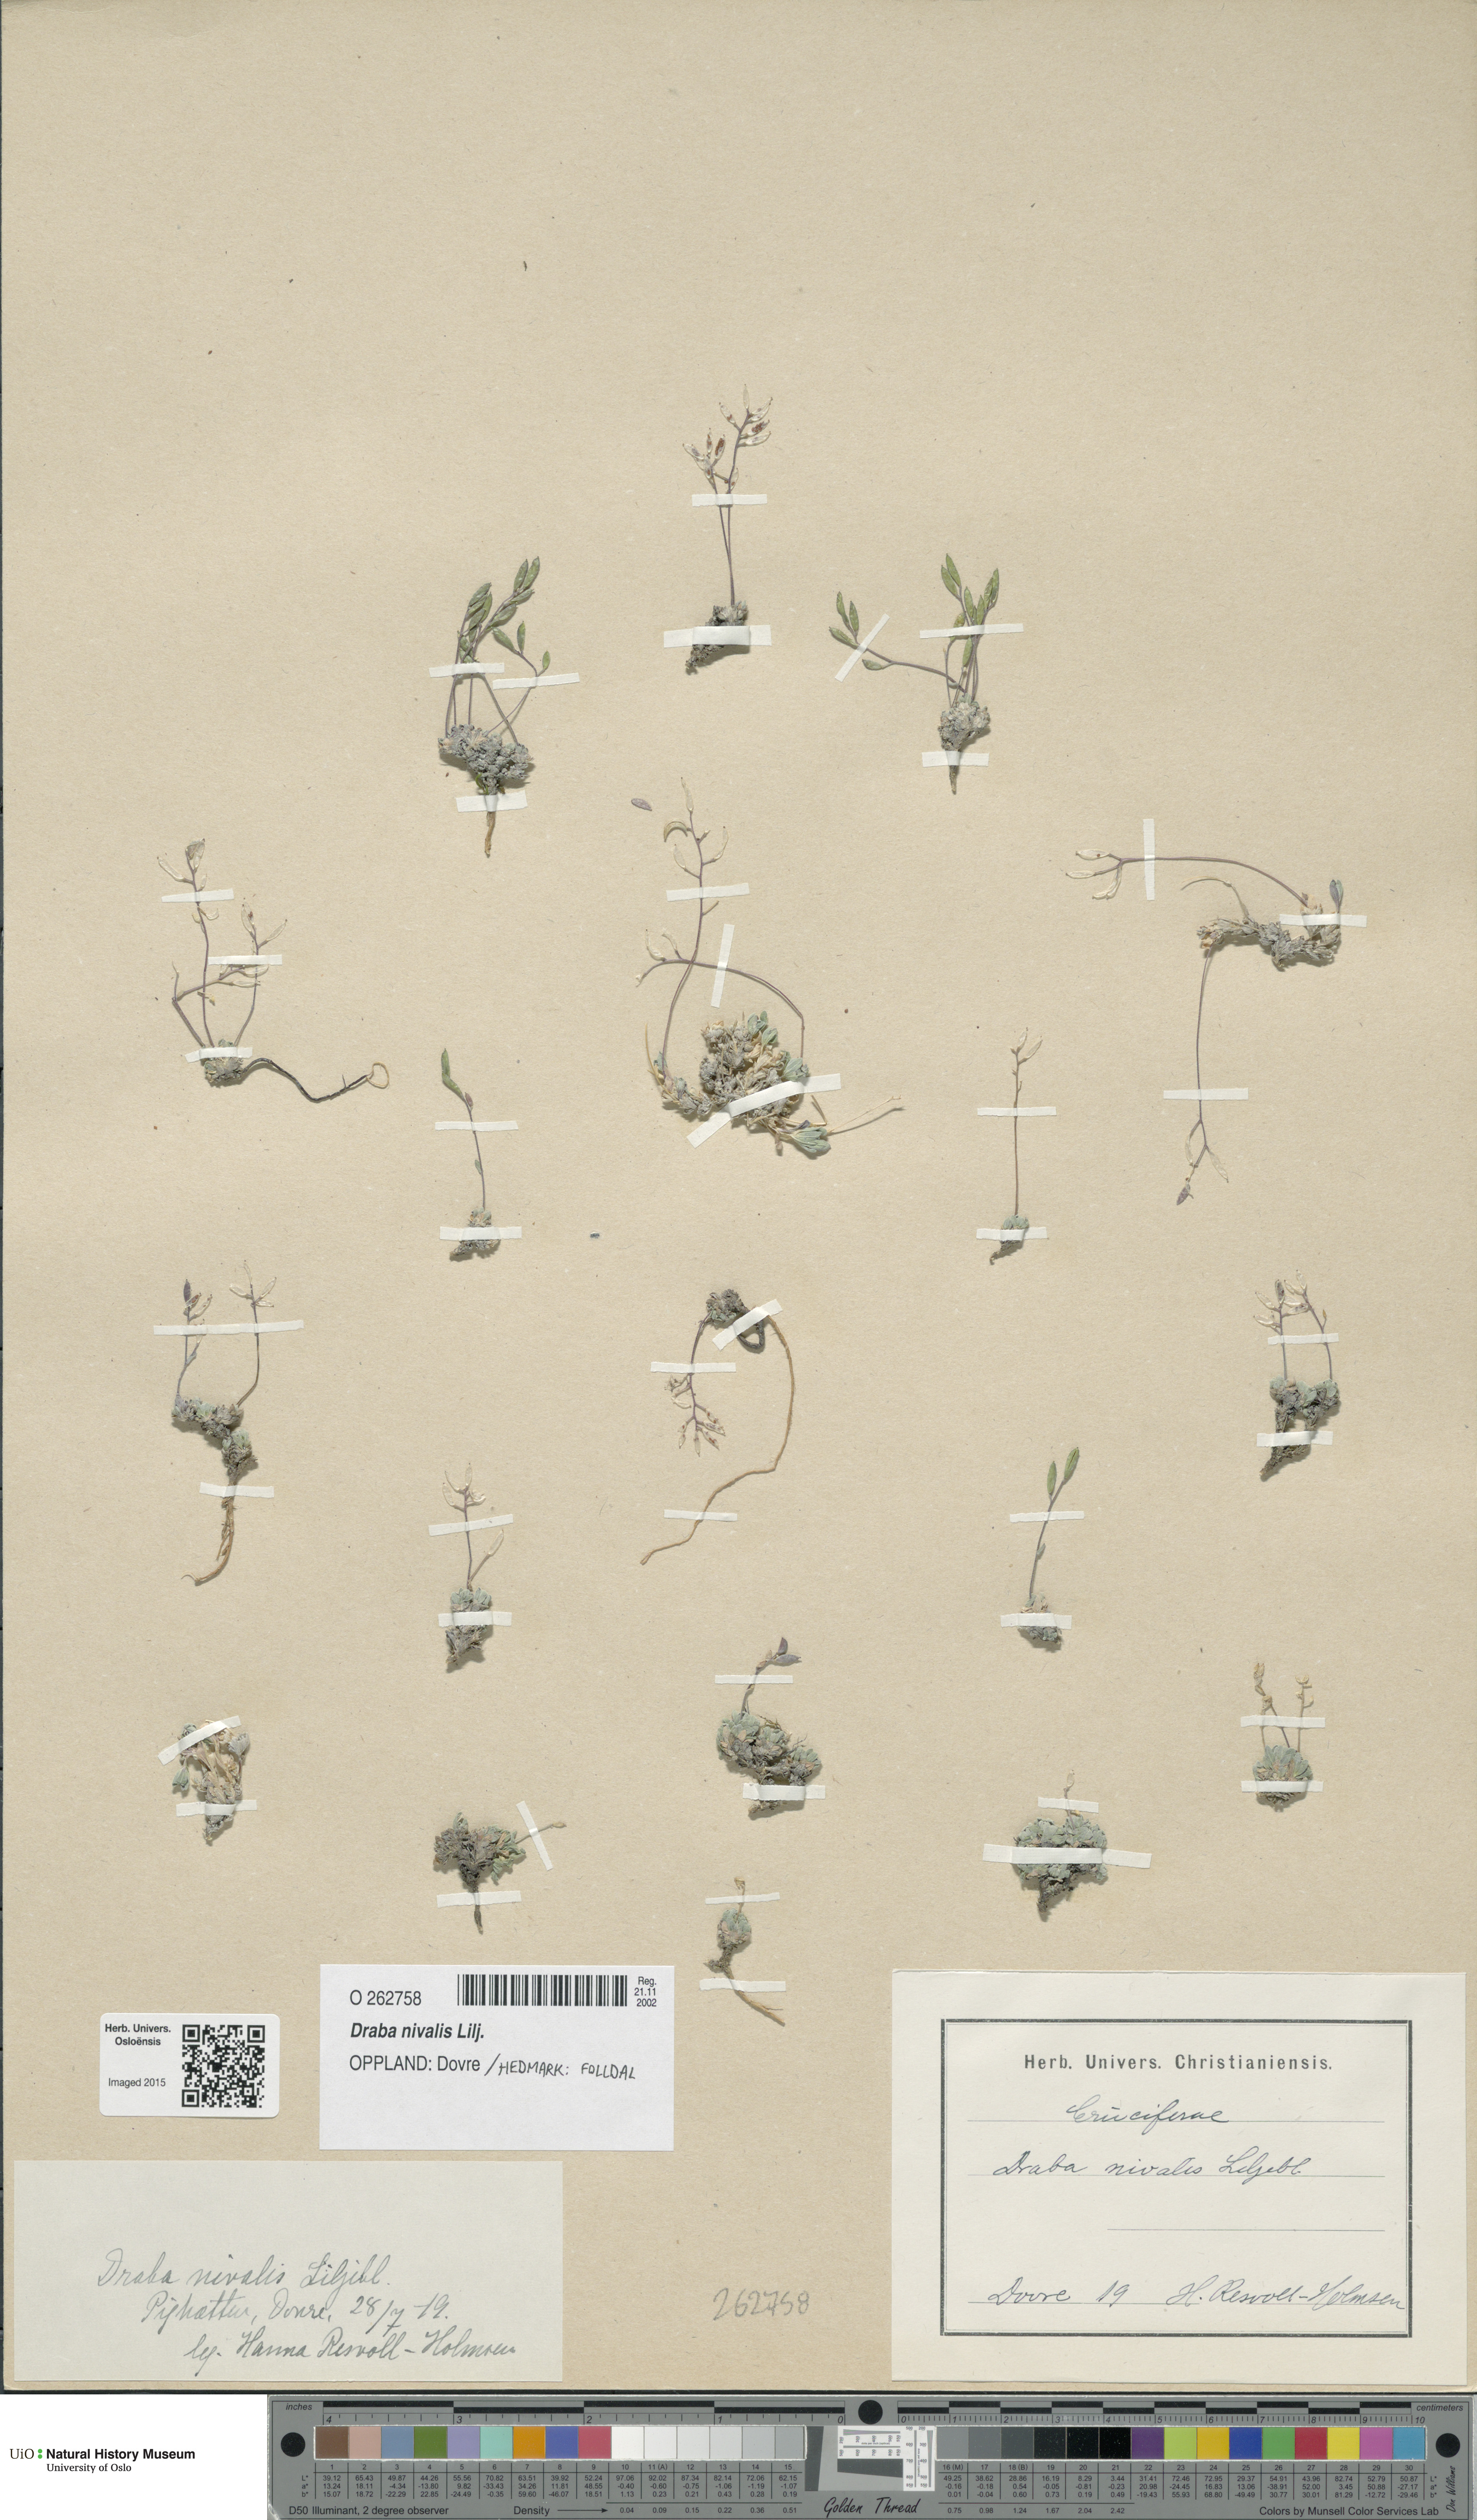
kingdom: Plantae
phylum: Tracheophyta
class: Magnoliopsida
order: Brassicales
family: Brassicaceae
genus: Draba
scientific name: Draba nivalis
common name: Snow draba
